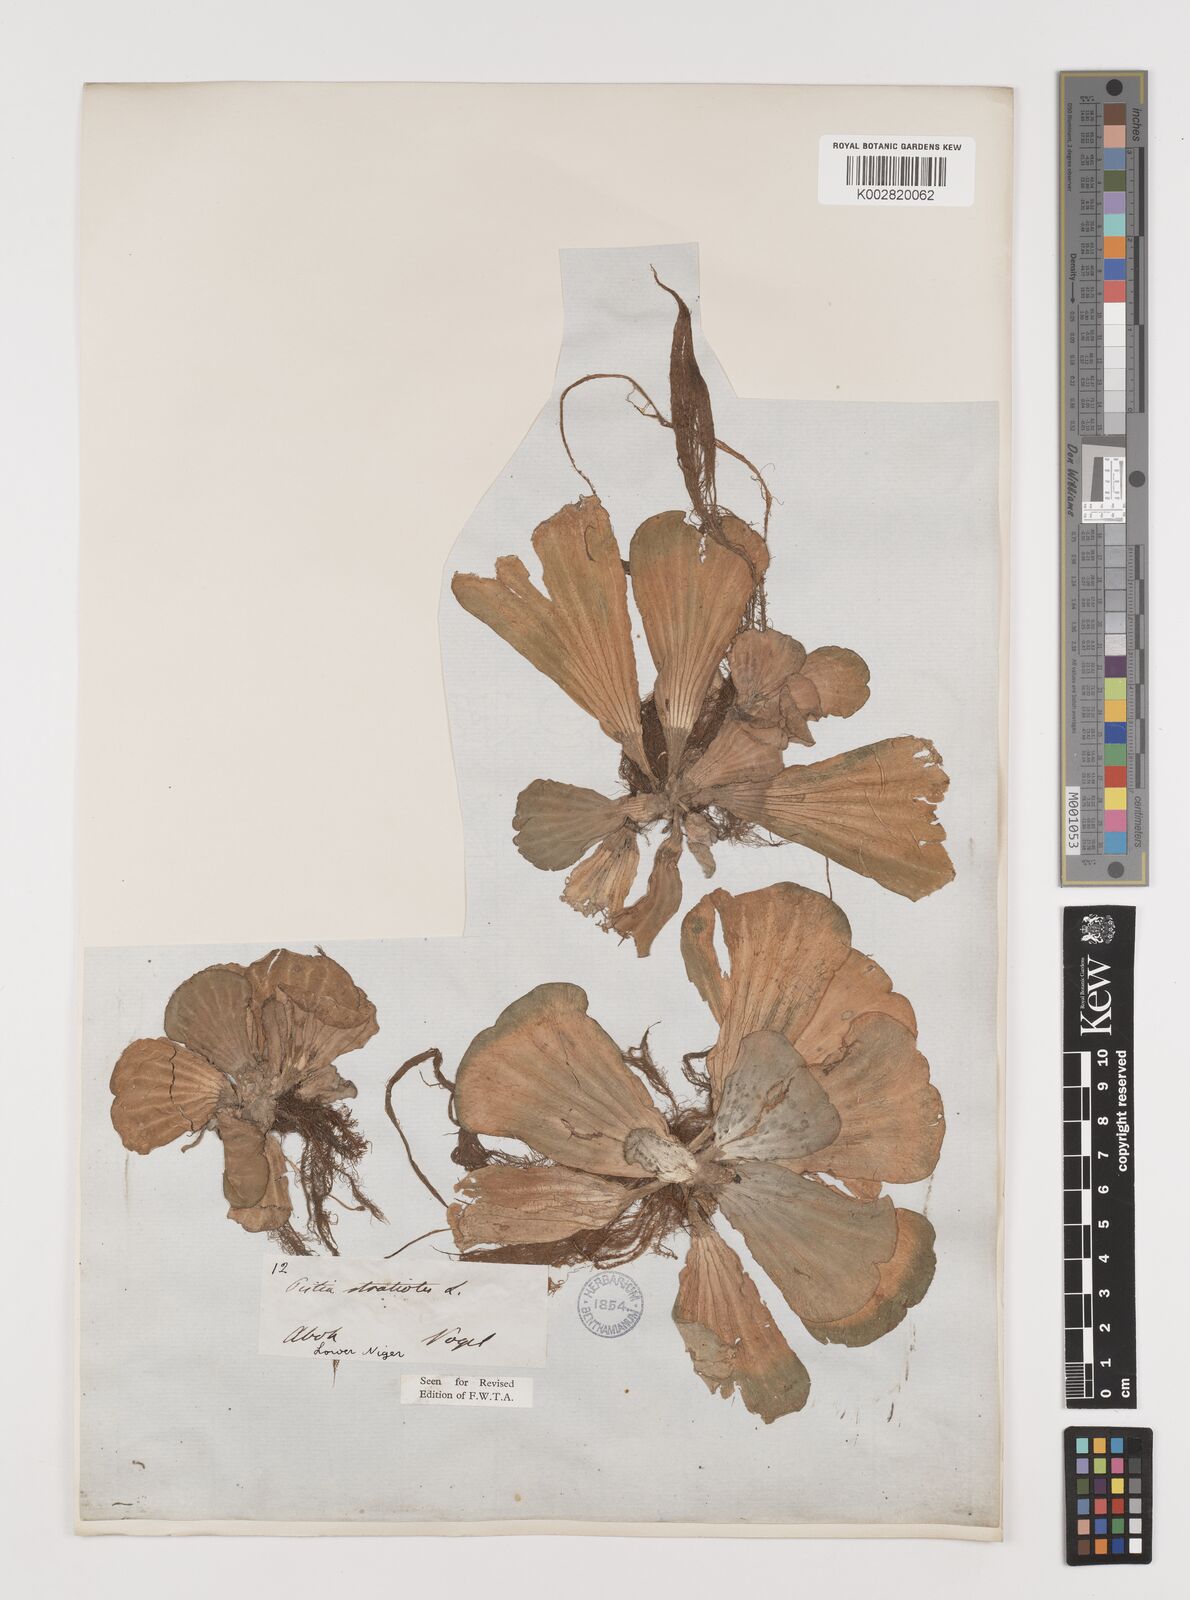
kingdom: Plantae
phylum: Tracheophyta
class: Liliopsida
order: Alismatales
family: Araceae
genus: Pistia
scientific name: Pistia stratiotes
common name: Water lettuce
